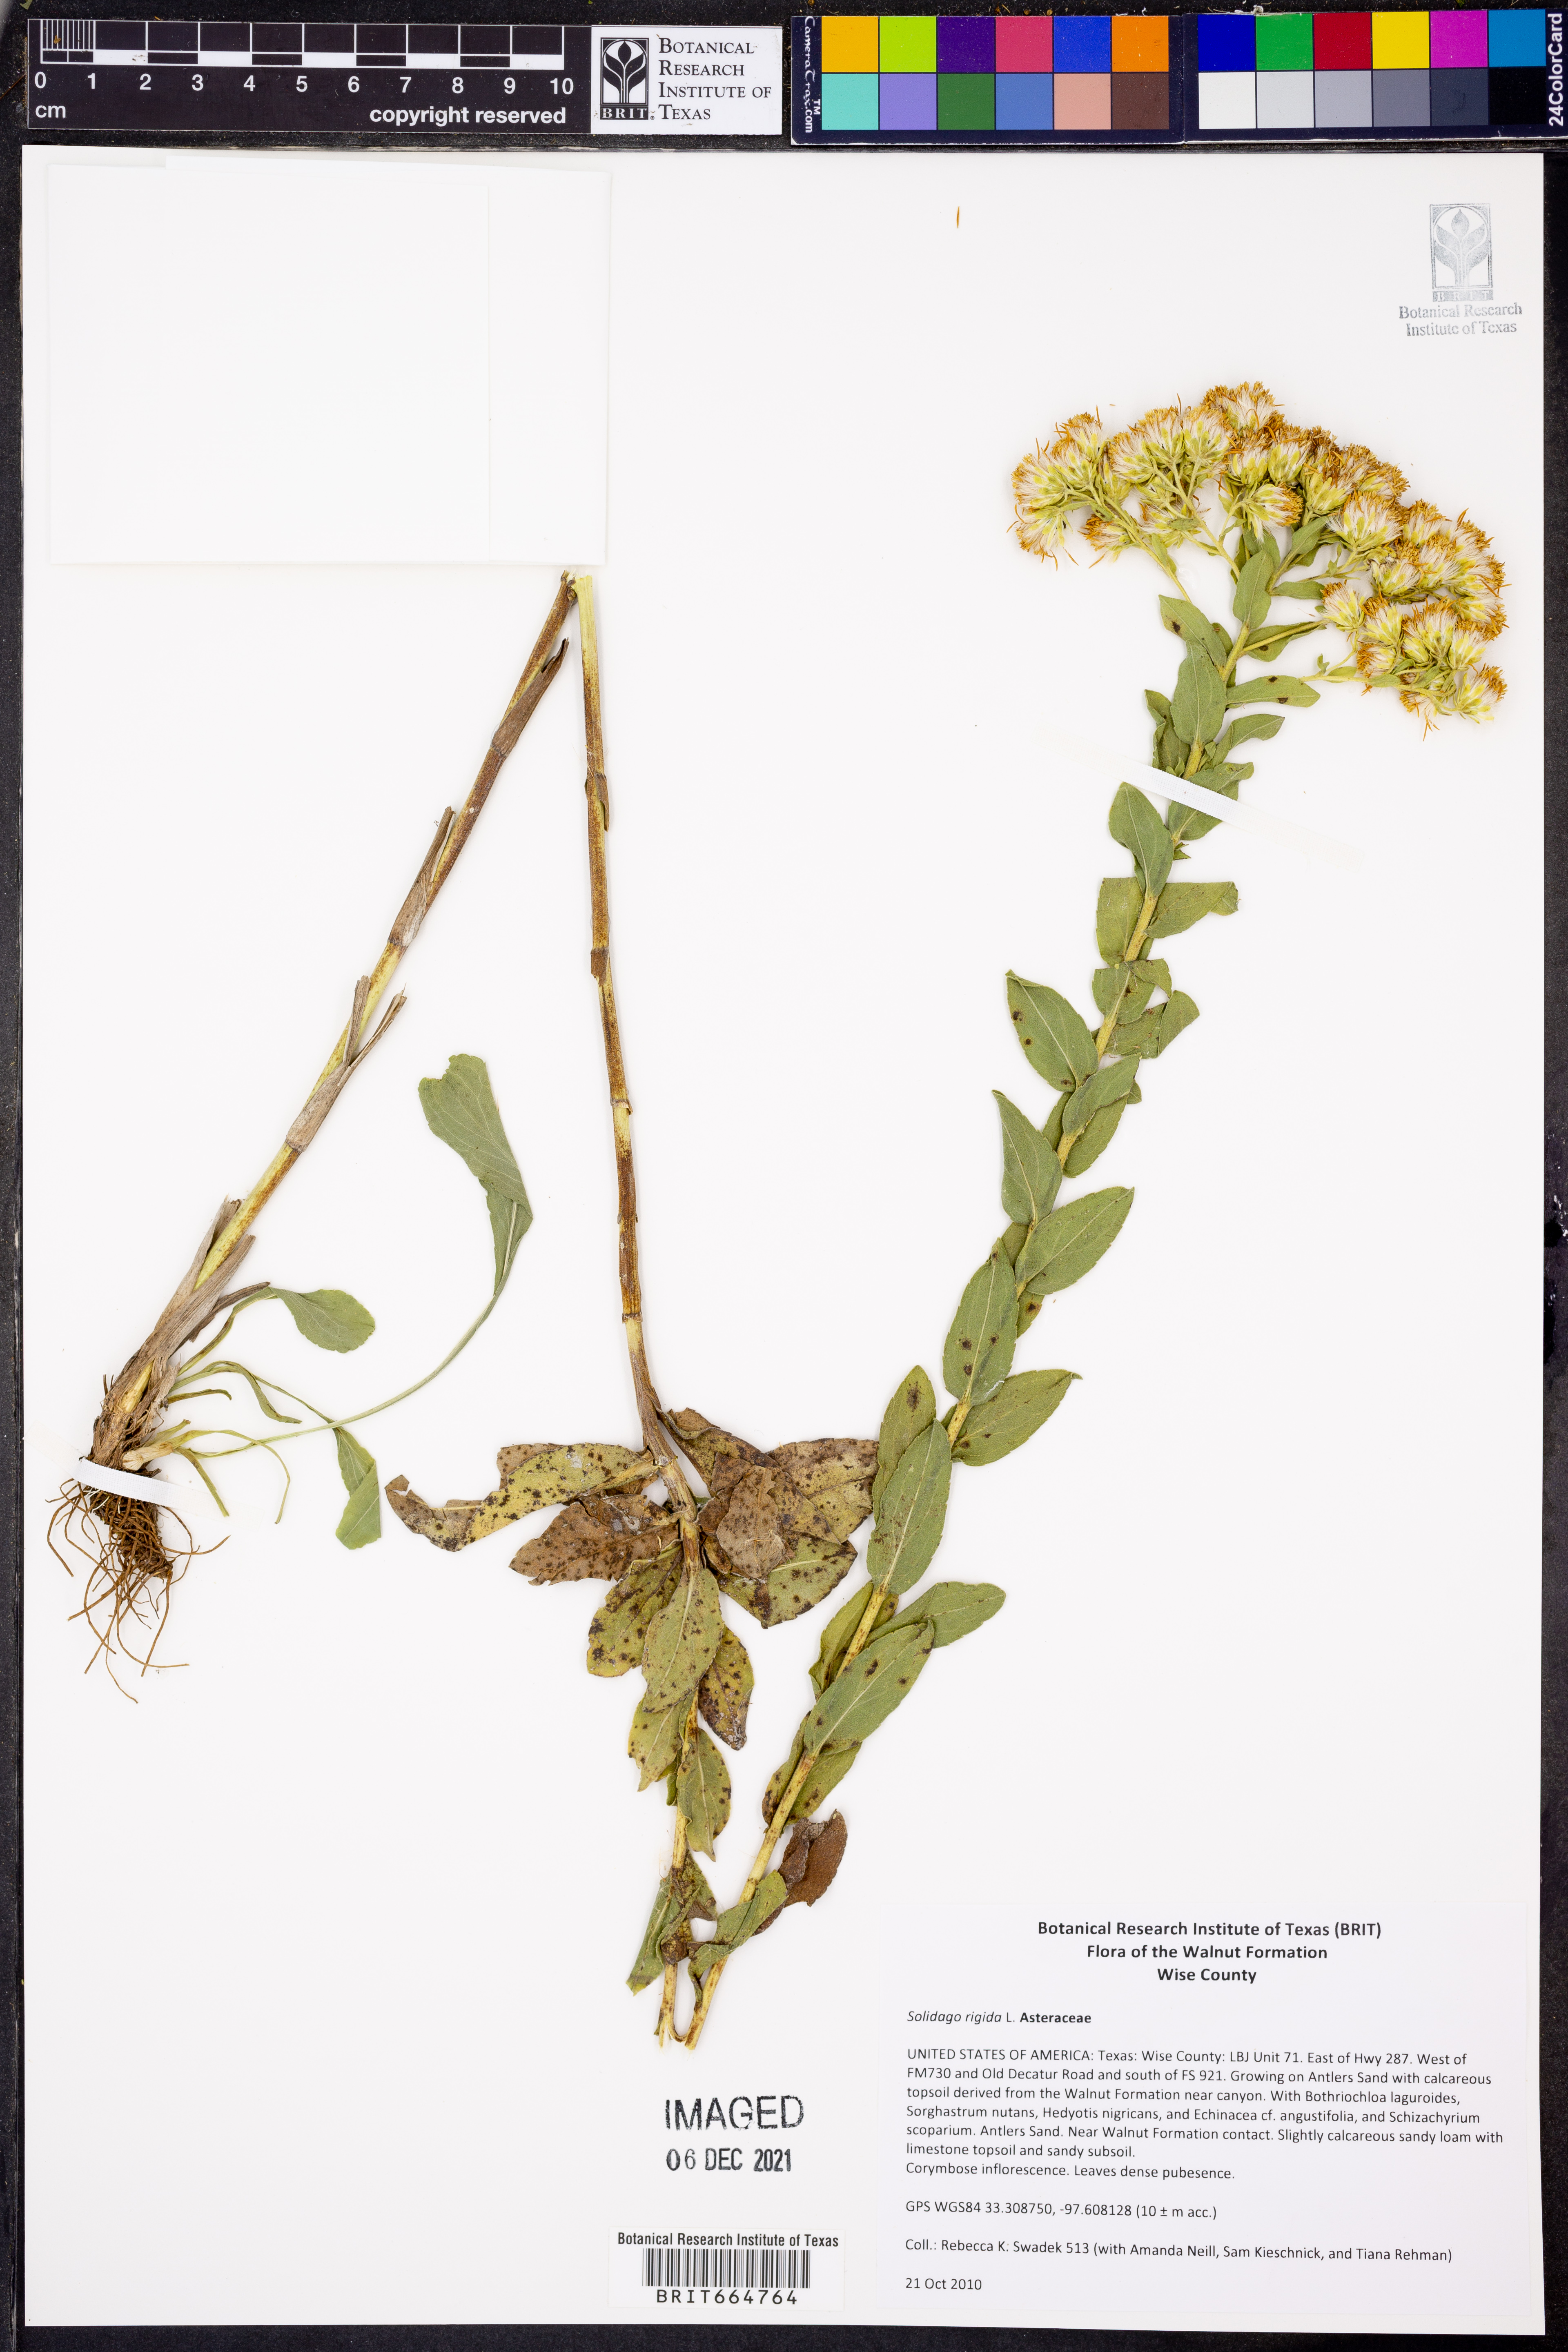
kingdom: Plantae
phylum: Tracheophyta
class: Magnoliopsida
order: Asterales
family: Asteraceae
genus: Solidago
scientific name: Solidago rigida
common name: Rigid goldenrod
